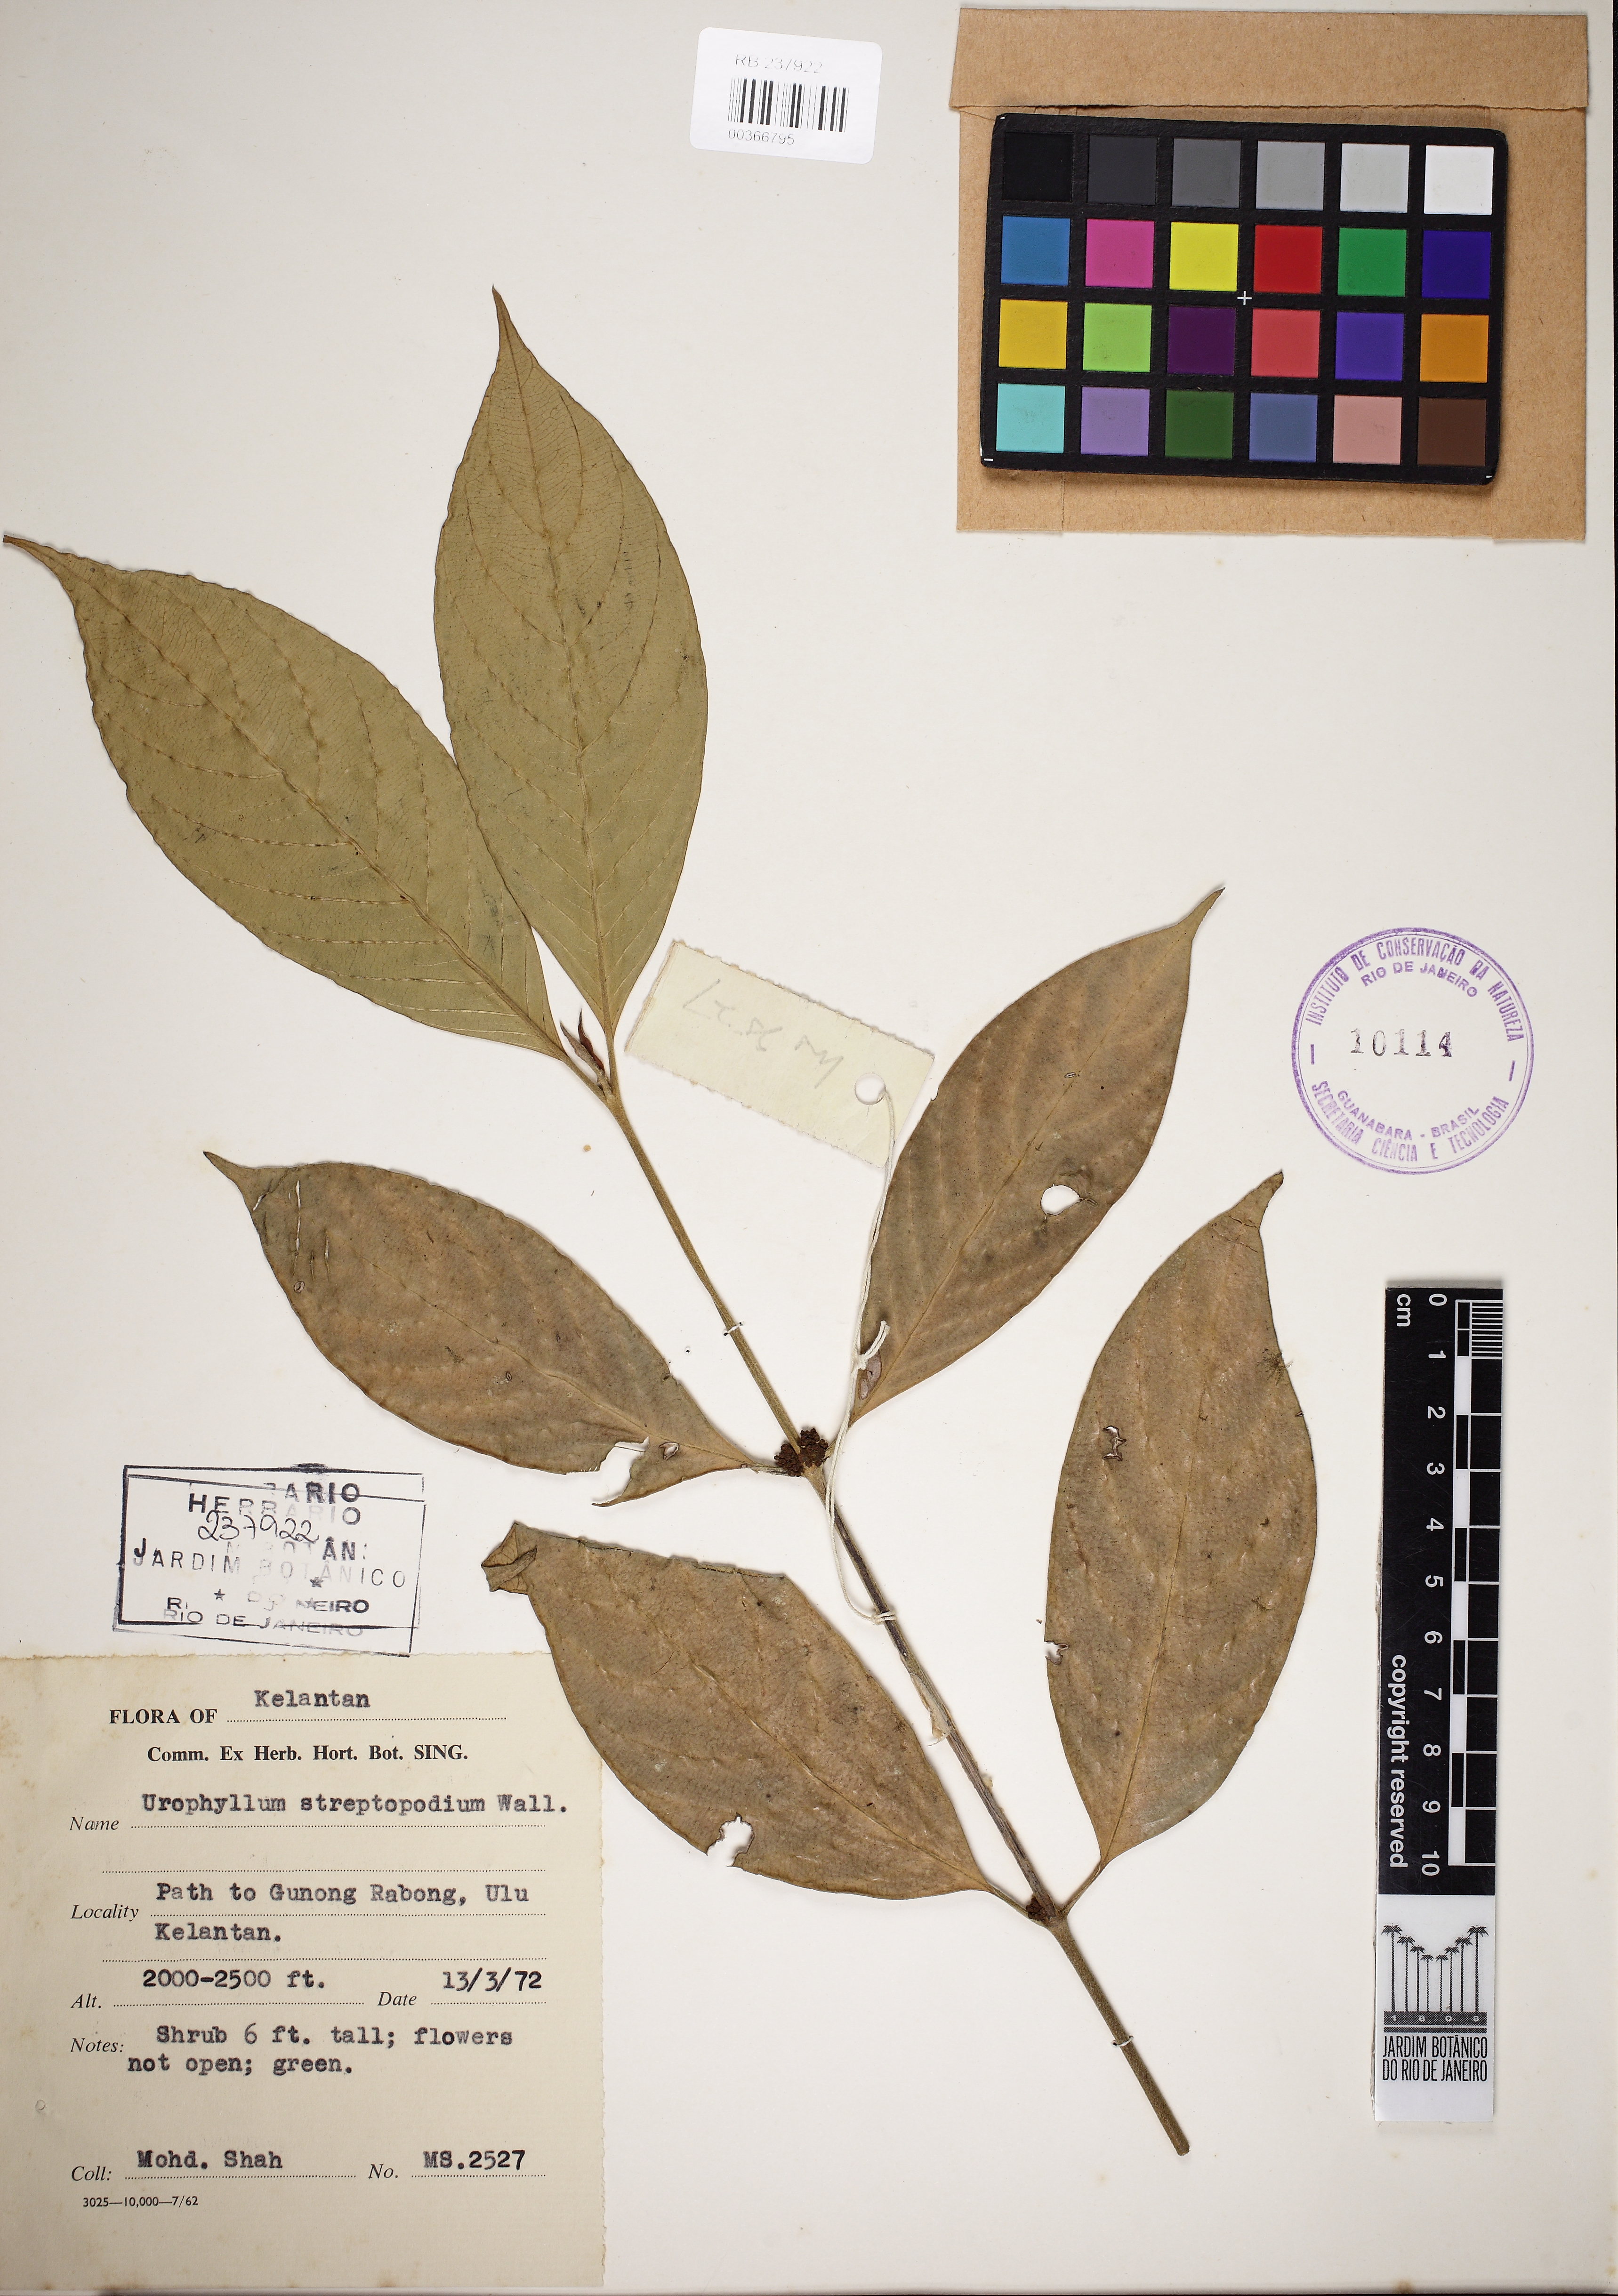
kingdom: Plantae
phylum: Tracheophyta
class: Magnoliopsida
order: Gentianales
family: Rubiaceae
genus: Urophyllum
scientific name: Urophyllum streptopodium
